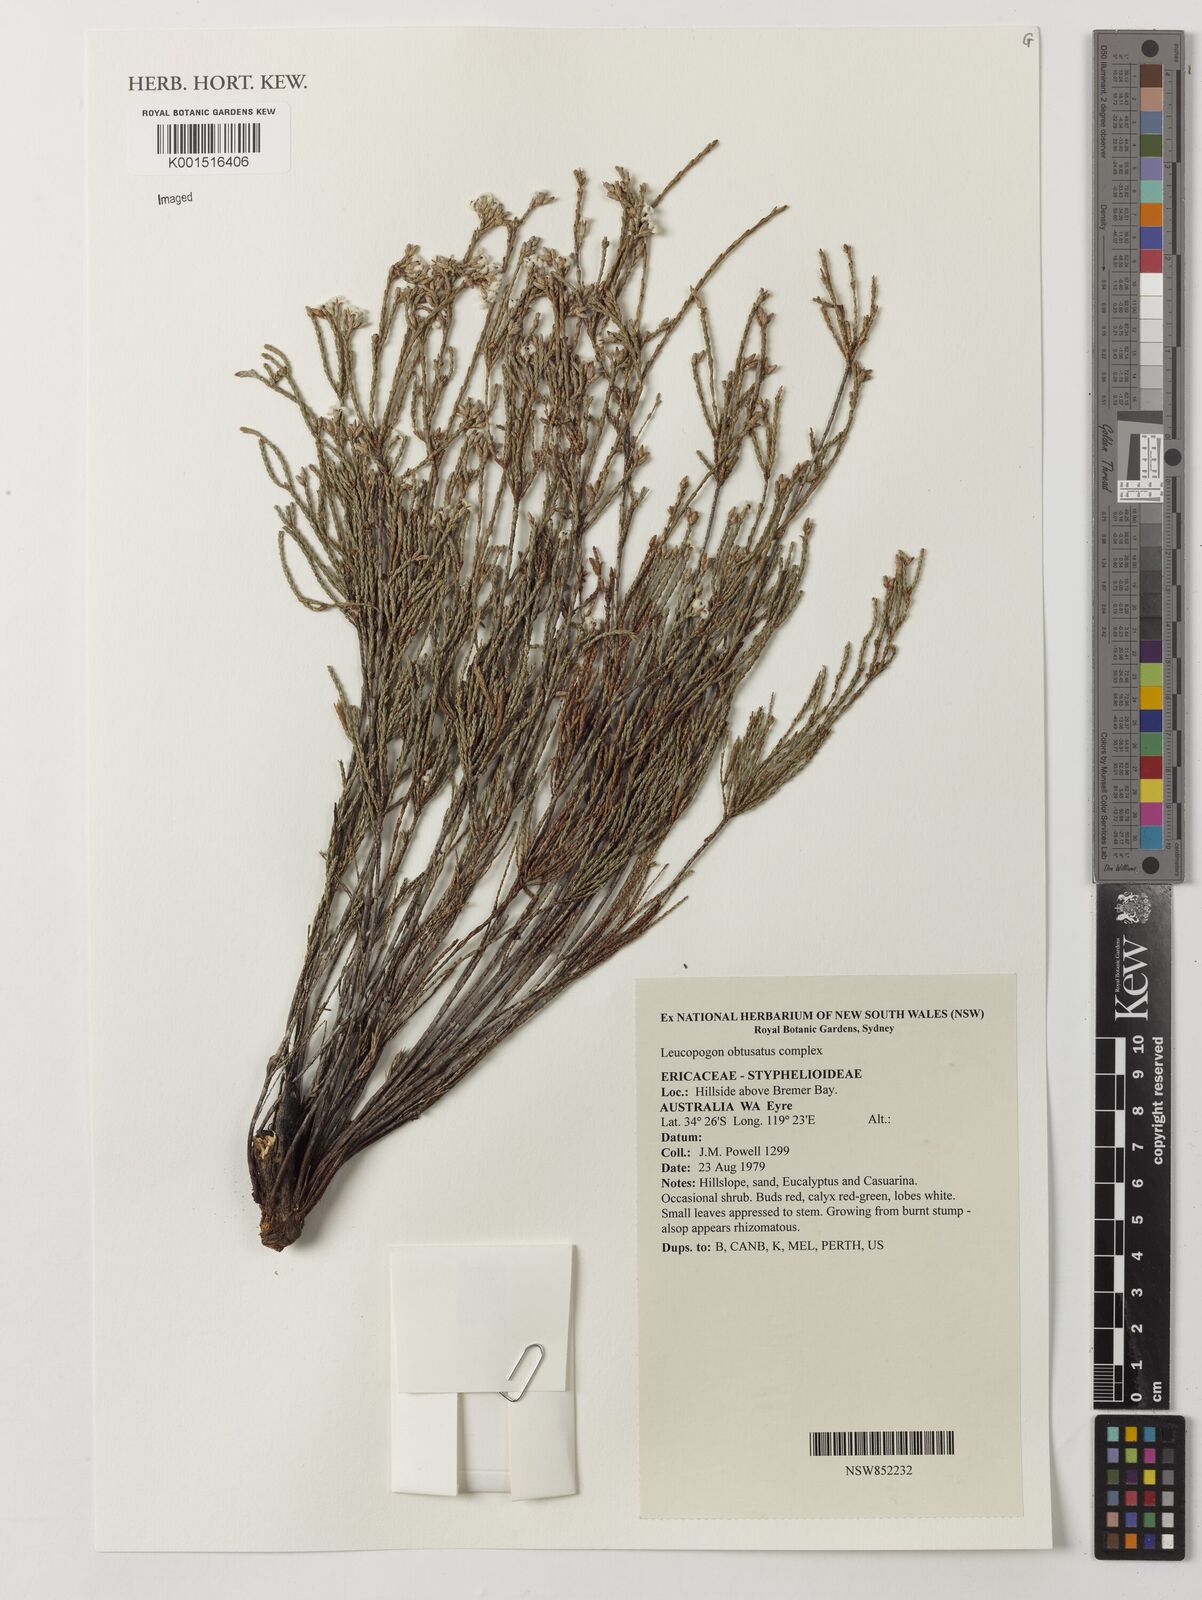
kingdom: Plantae
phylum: Tracheophyta
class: Magnoliopsida
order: Ericales
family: Ericaceae
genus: Leucopogon
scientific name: Leucopogon obtusatus
